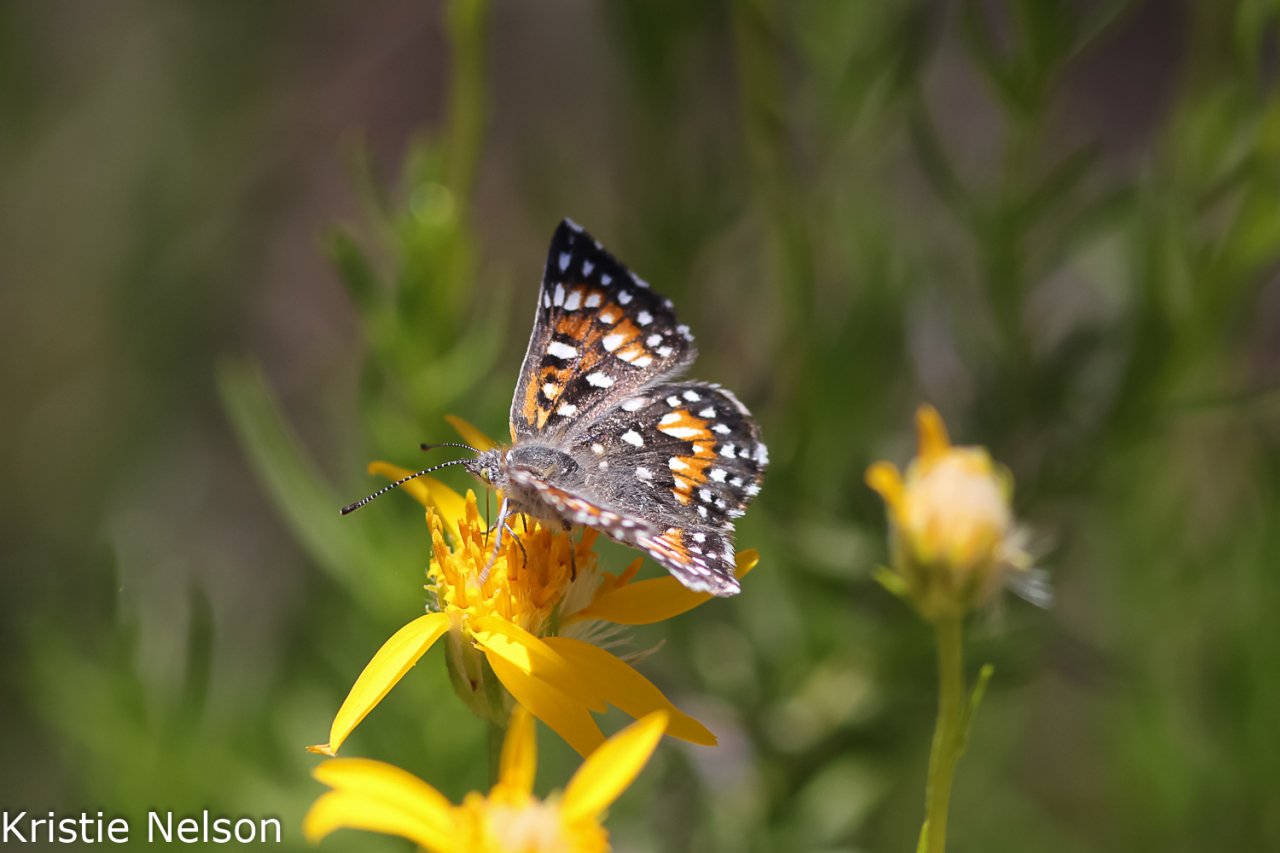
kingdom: Animalia
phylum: Arthropoda
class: Insecta
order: Lepidoptera
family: Riodinidae
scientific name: Riodinidae
